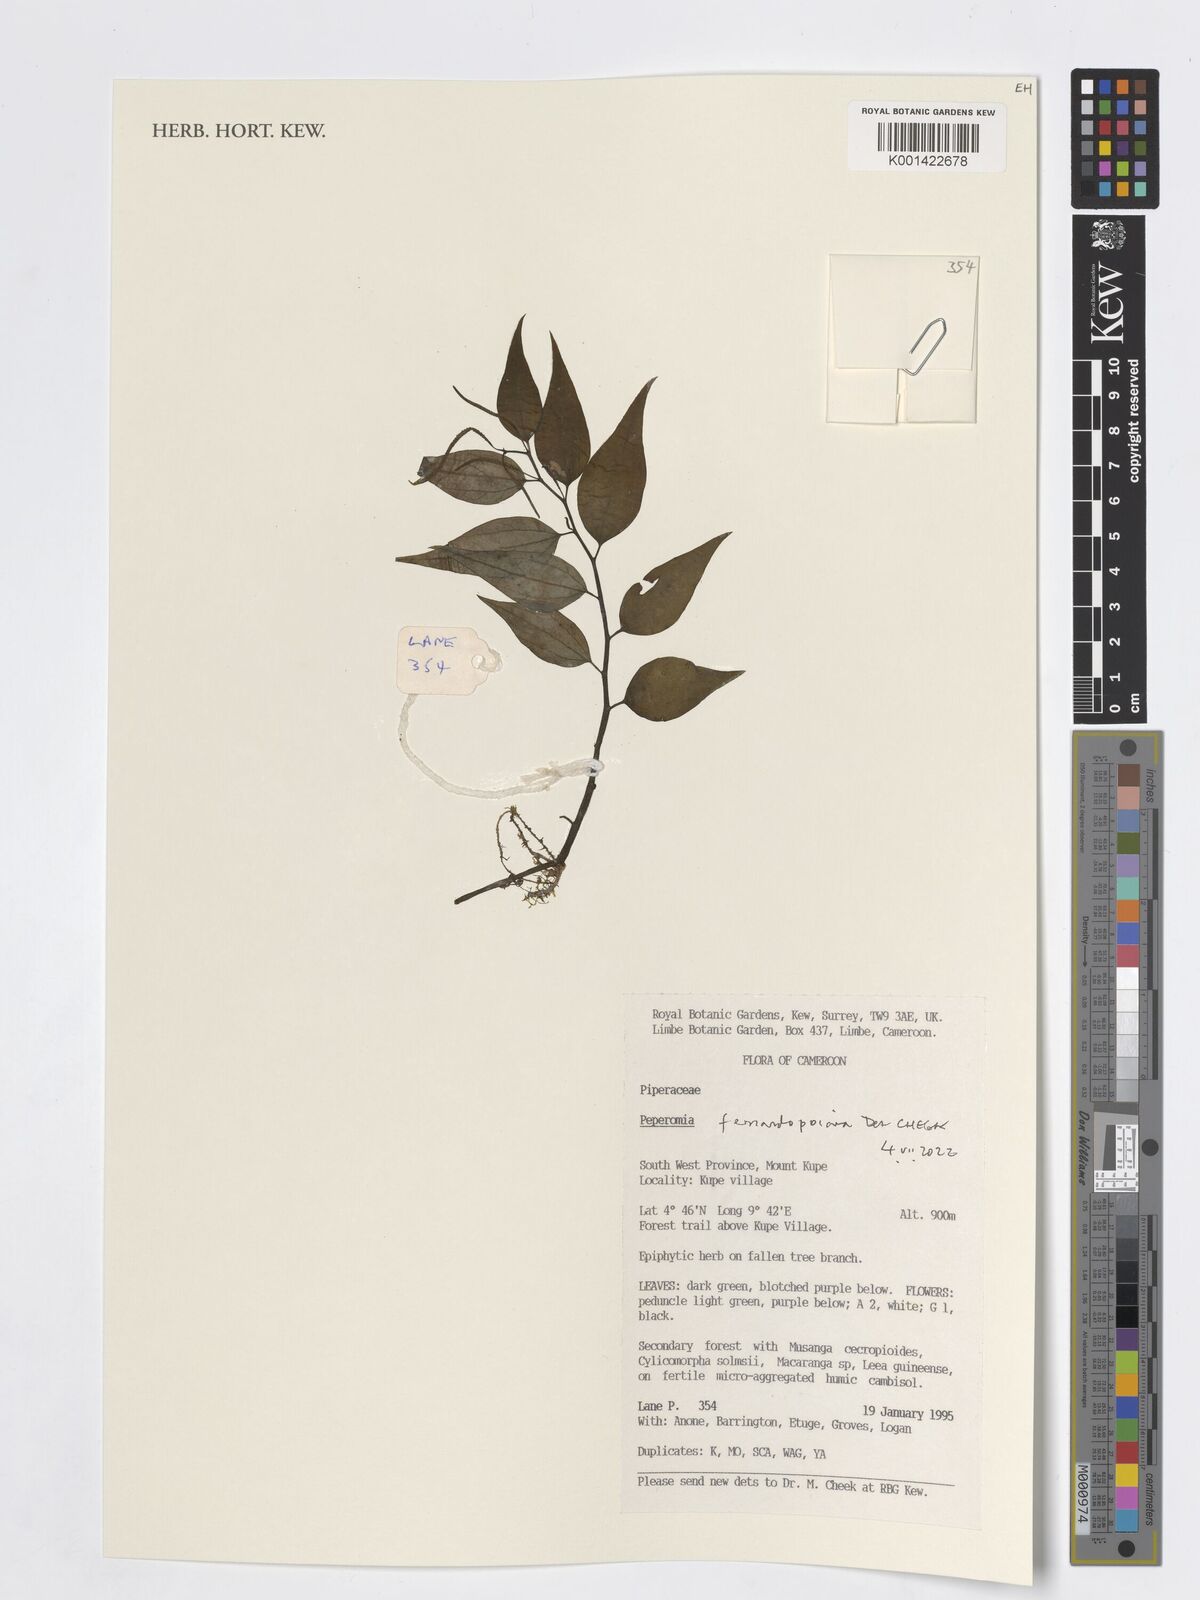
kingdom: Plantae
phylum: Tracheophyta
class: Magnoliopsida
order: Piperales
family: Piperaceae
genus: Peperomia
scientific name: Peperomia fernandopoiana
